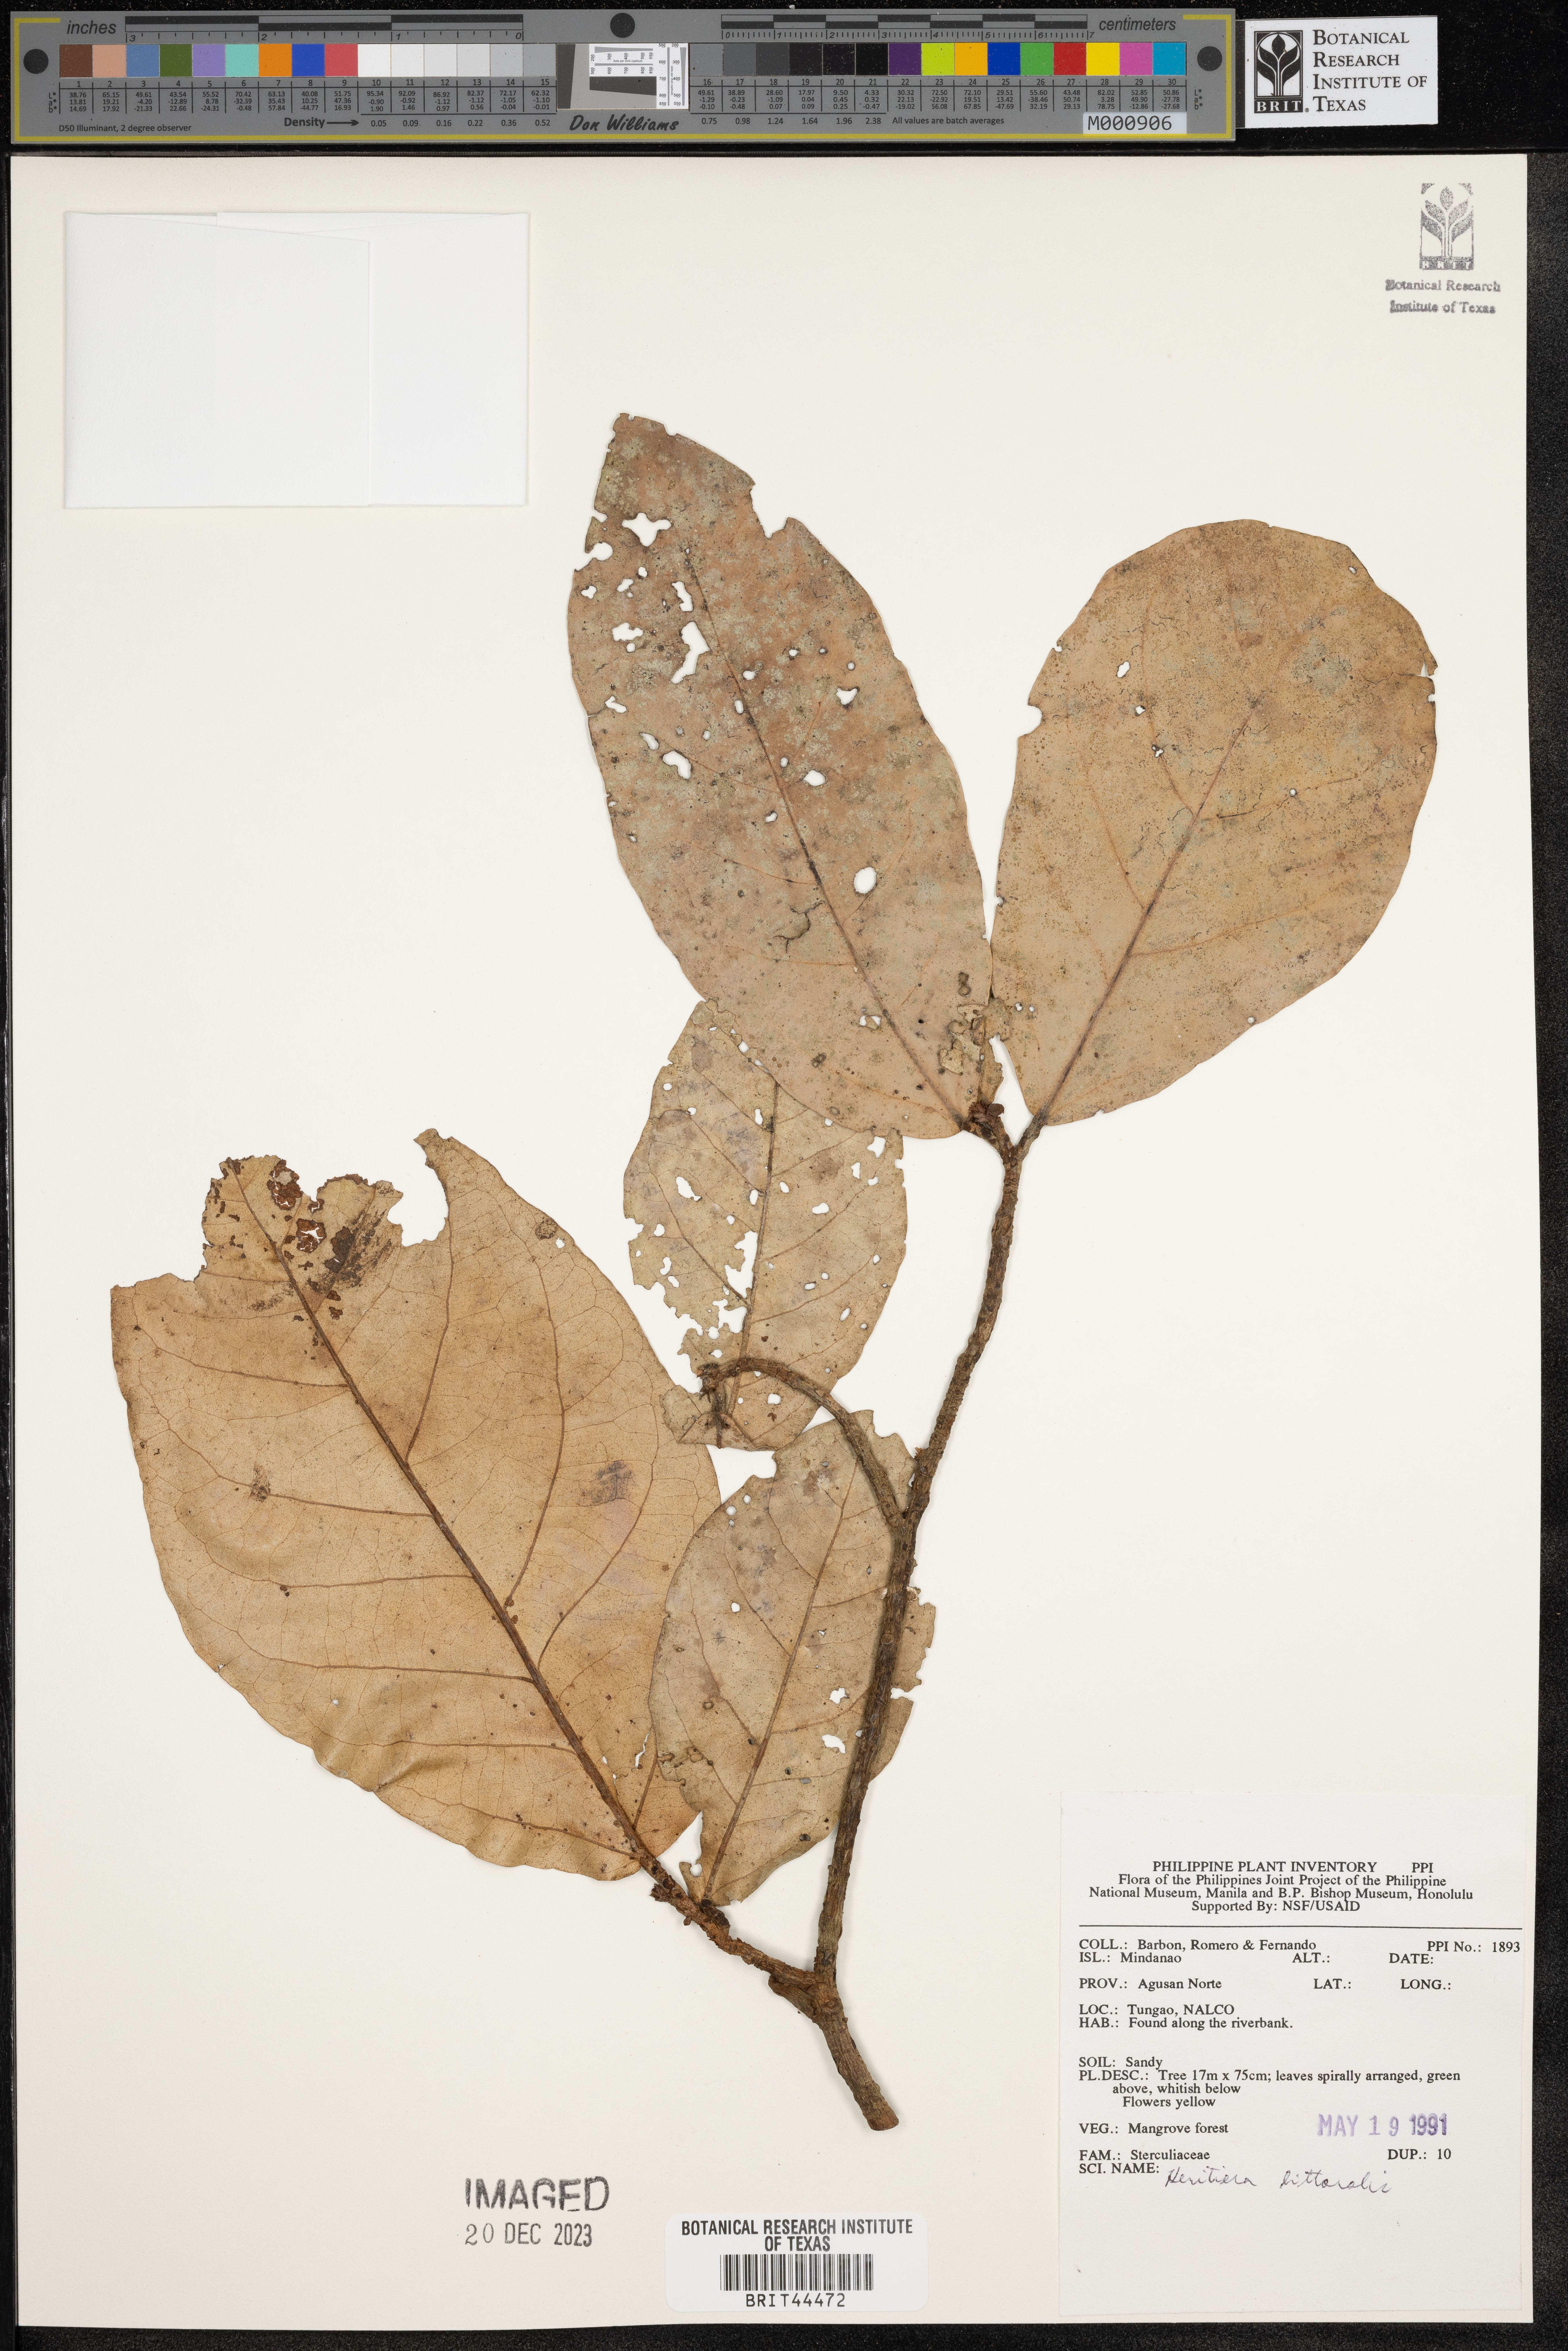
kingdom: Plantae
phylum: Tracheophyta
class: Magnoliopsida
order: Malvales
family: Malvaceae
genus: Heritiera
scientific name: Heritiera littoralis
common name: Looking-glass mangrove
